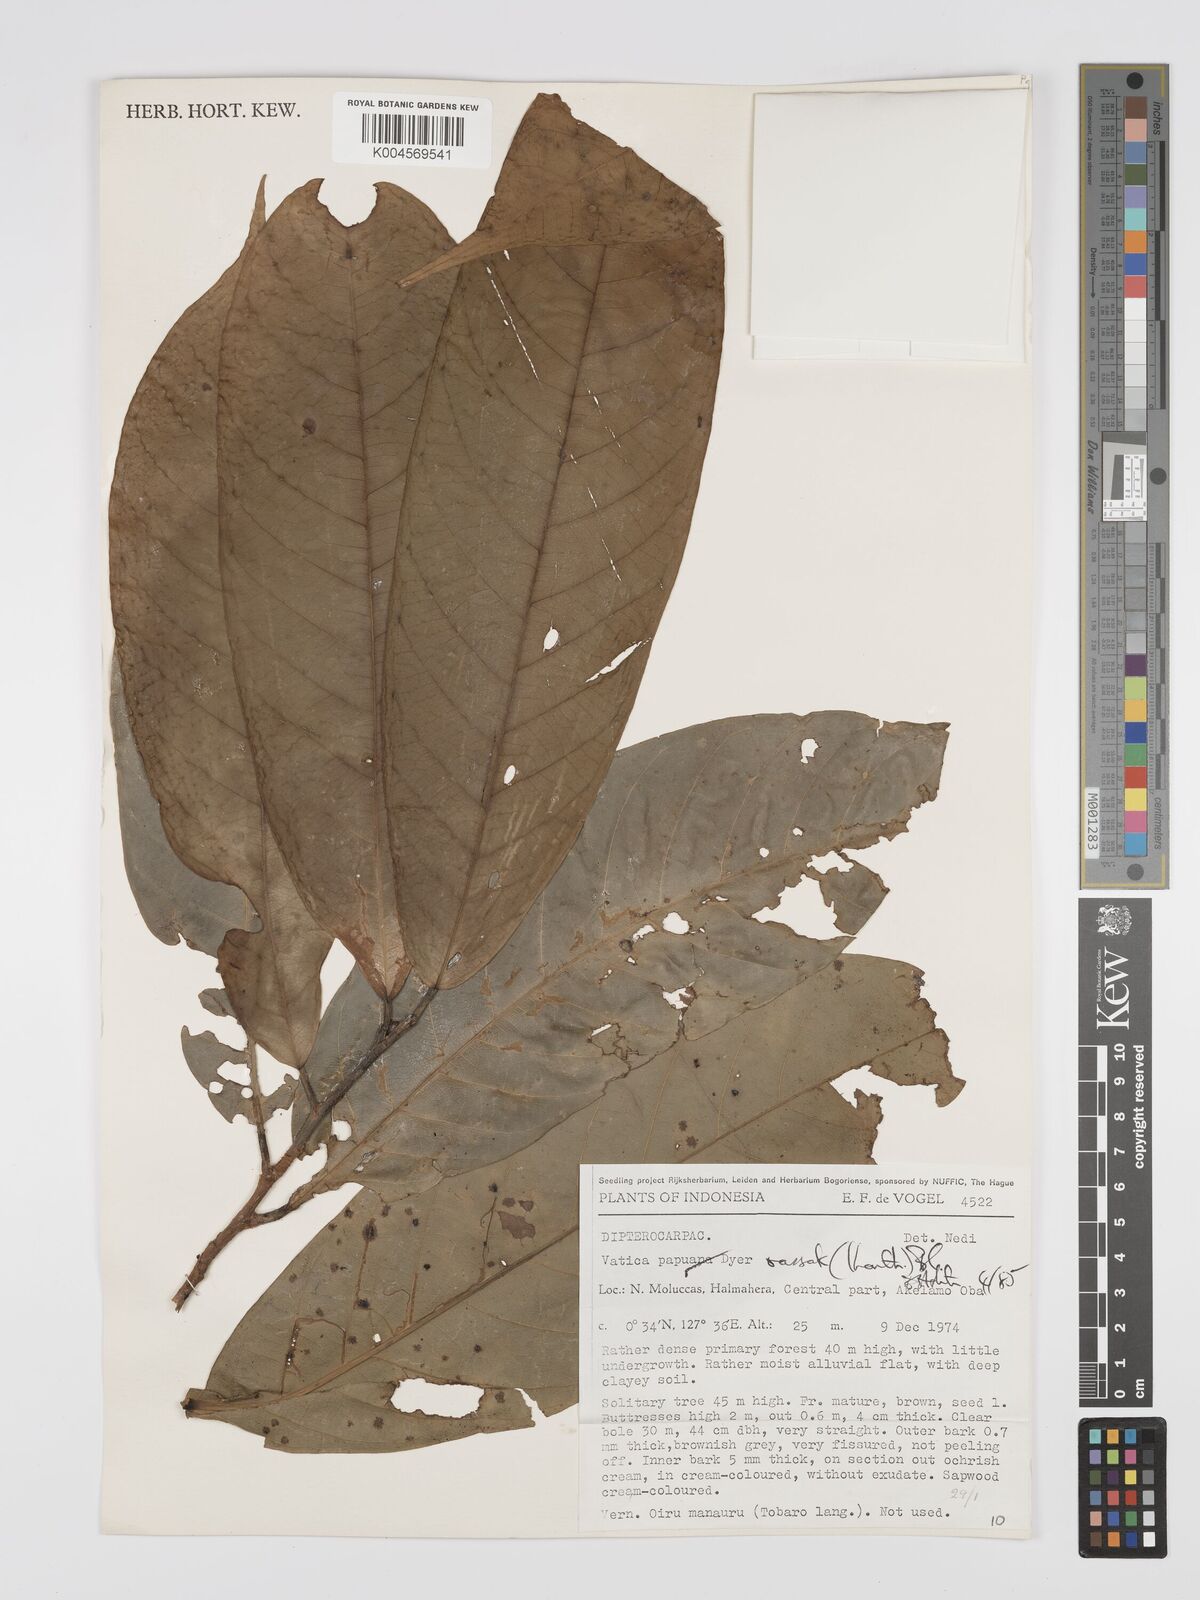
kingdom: Plantae
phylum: Tracheophyta
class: Magnoliopsida
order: Malvales
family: Dipterocarpaceae
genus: Vatica
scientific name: Vatica rassak
